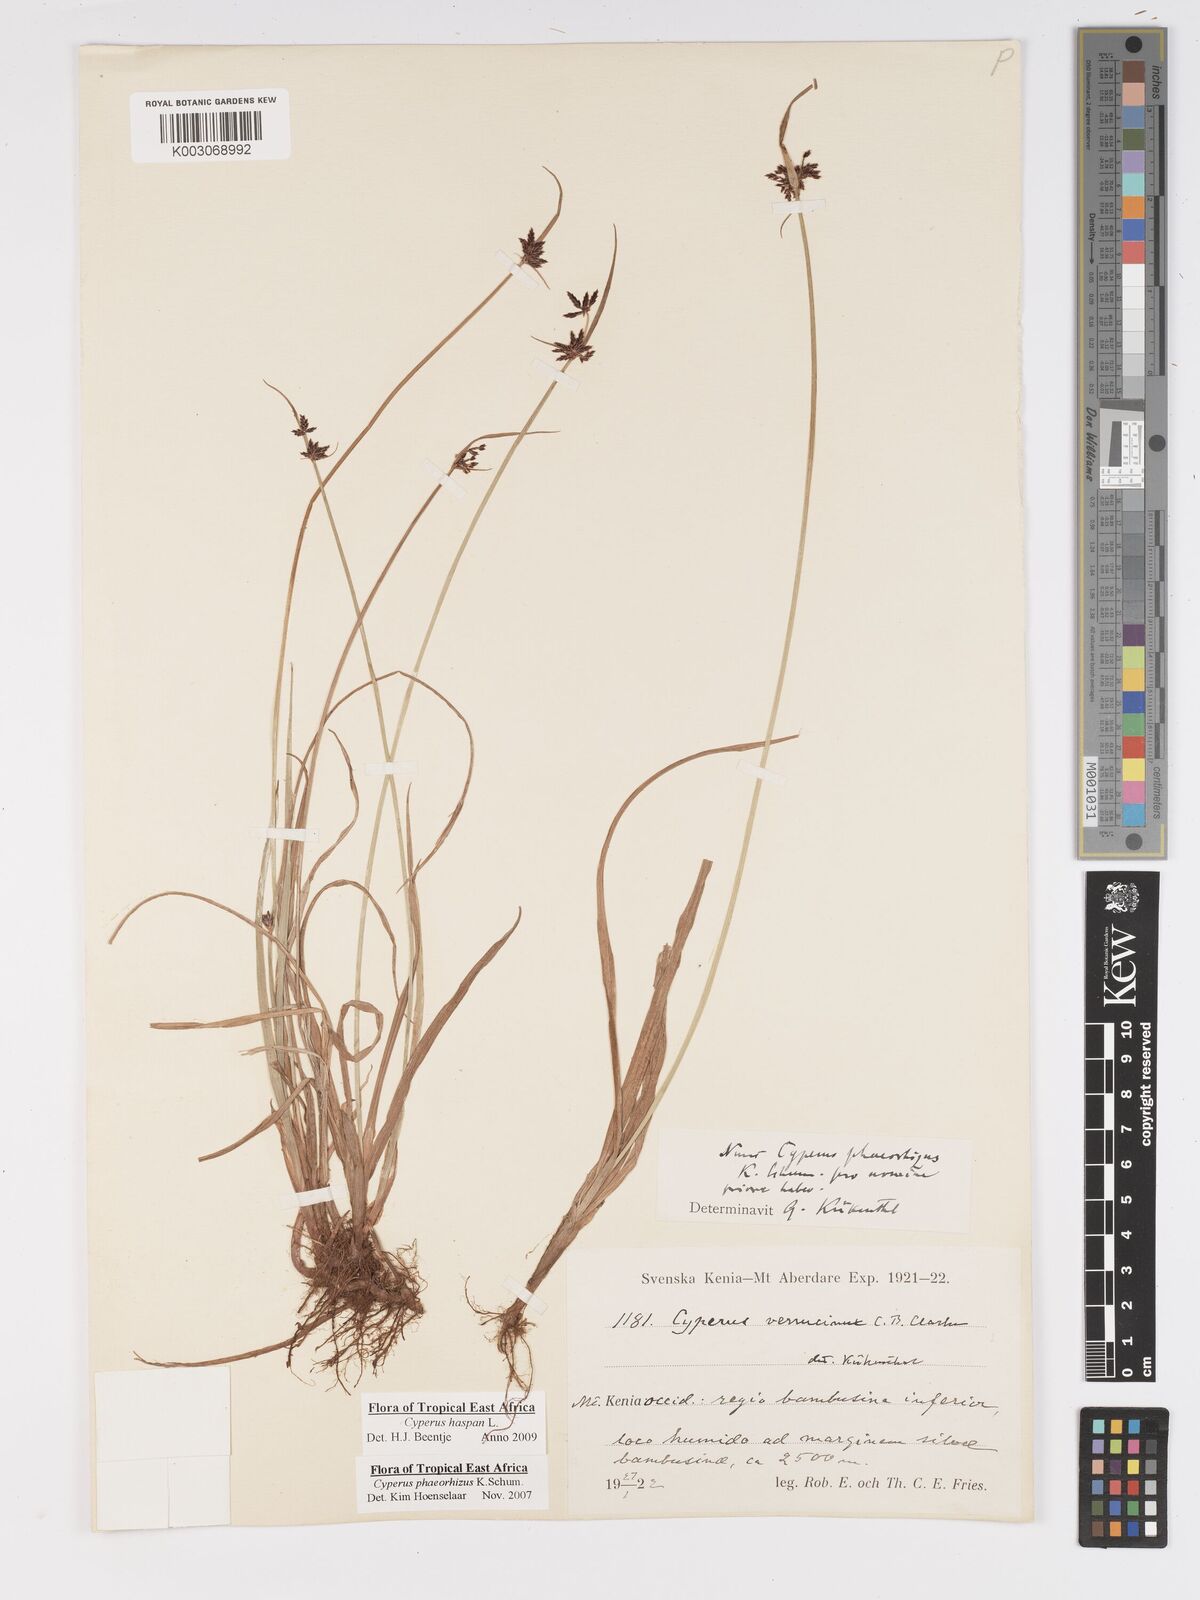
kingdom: Plantae
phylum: Tracheophyta
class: Liliopsida
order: Poales
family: Cyperaceae
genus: Cyperus
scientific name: Cyperus haspan
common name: Haspan flatsedge
